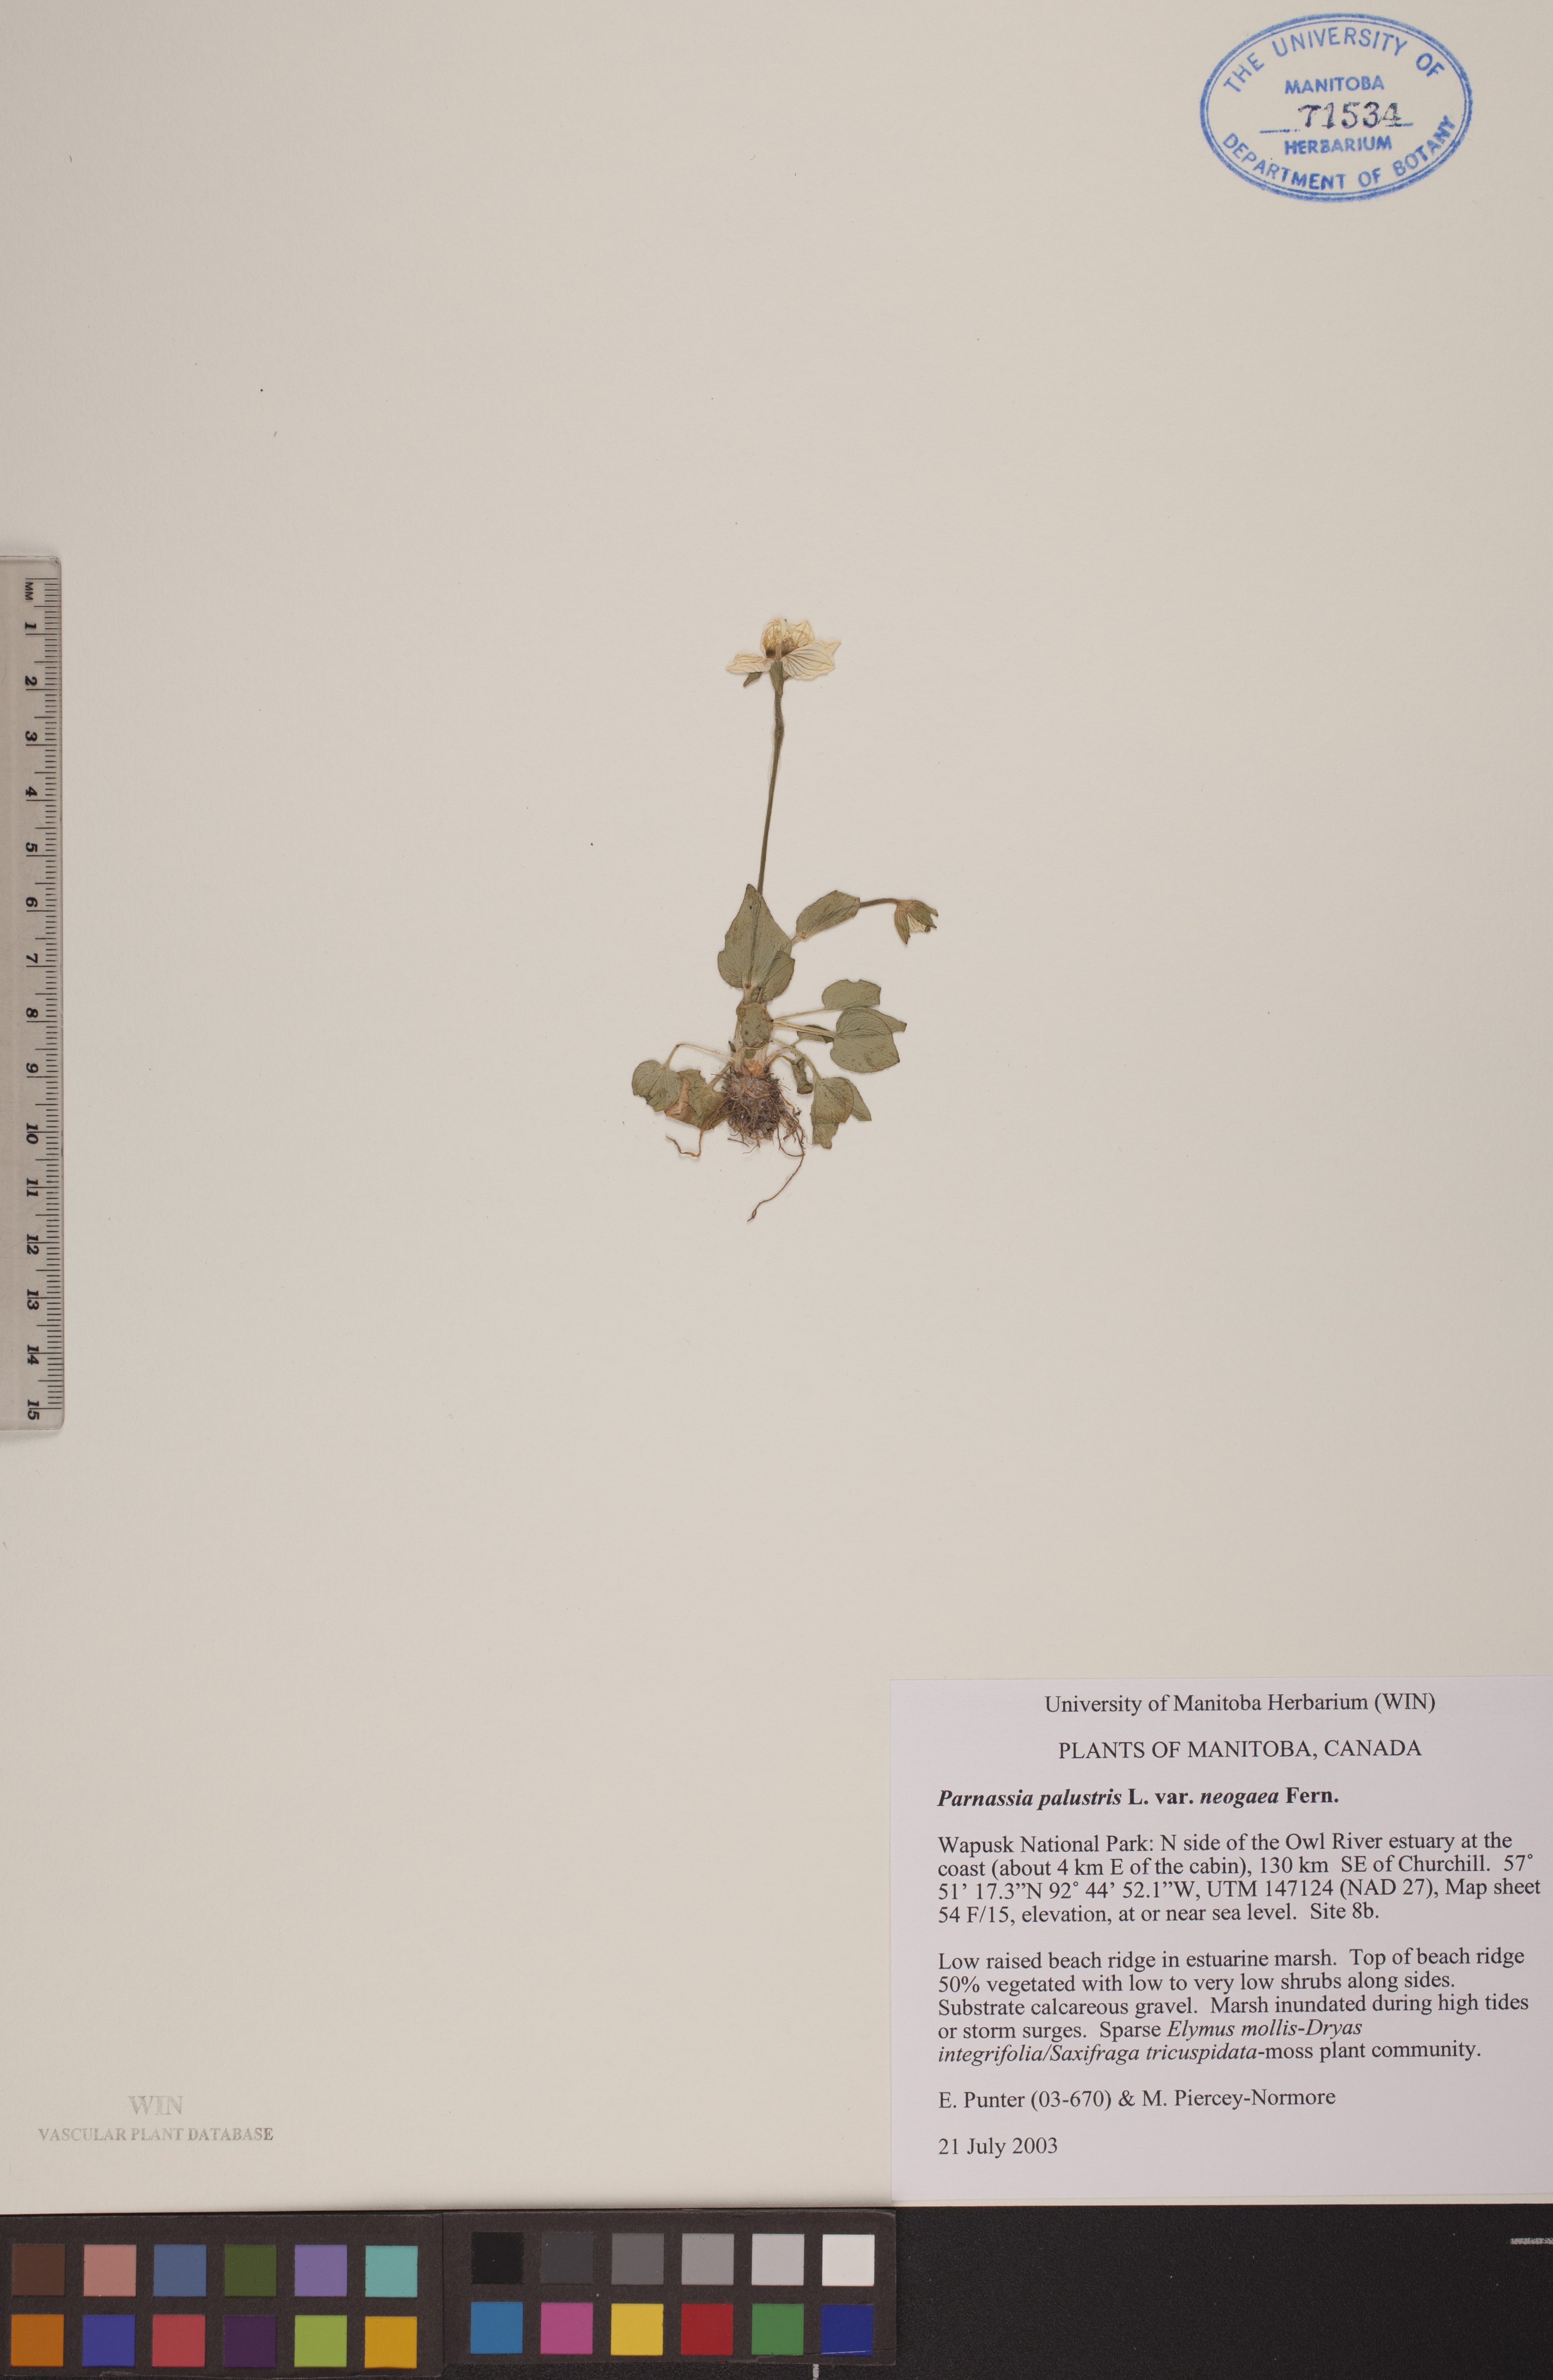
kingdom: Plantae
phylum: Tracheophyta
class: Magnoliopsida
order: Celastrales
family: Parnassiaceae
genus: Parnassia
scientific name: Parnassia palustris
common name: Grass-of-parnassus
